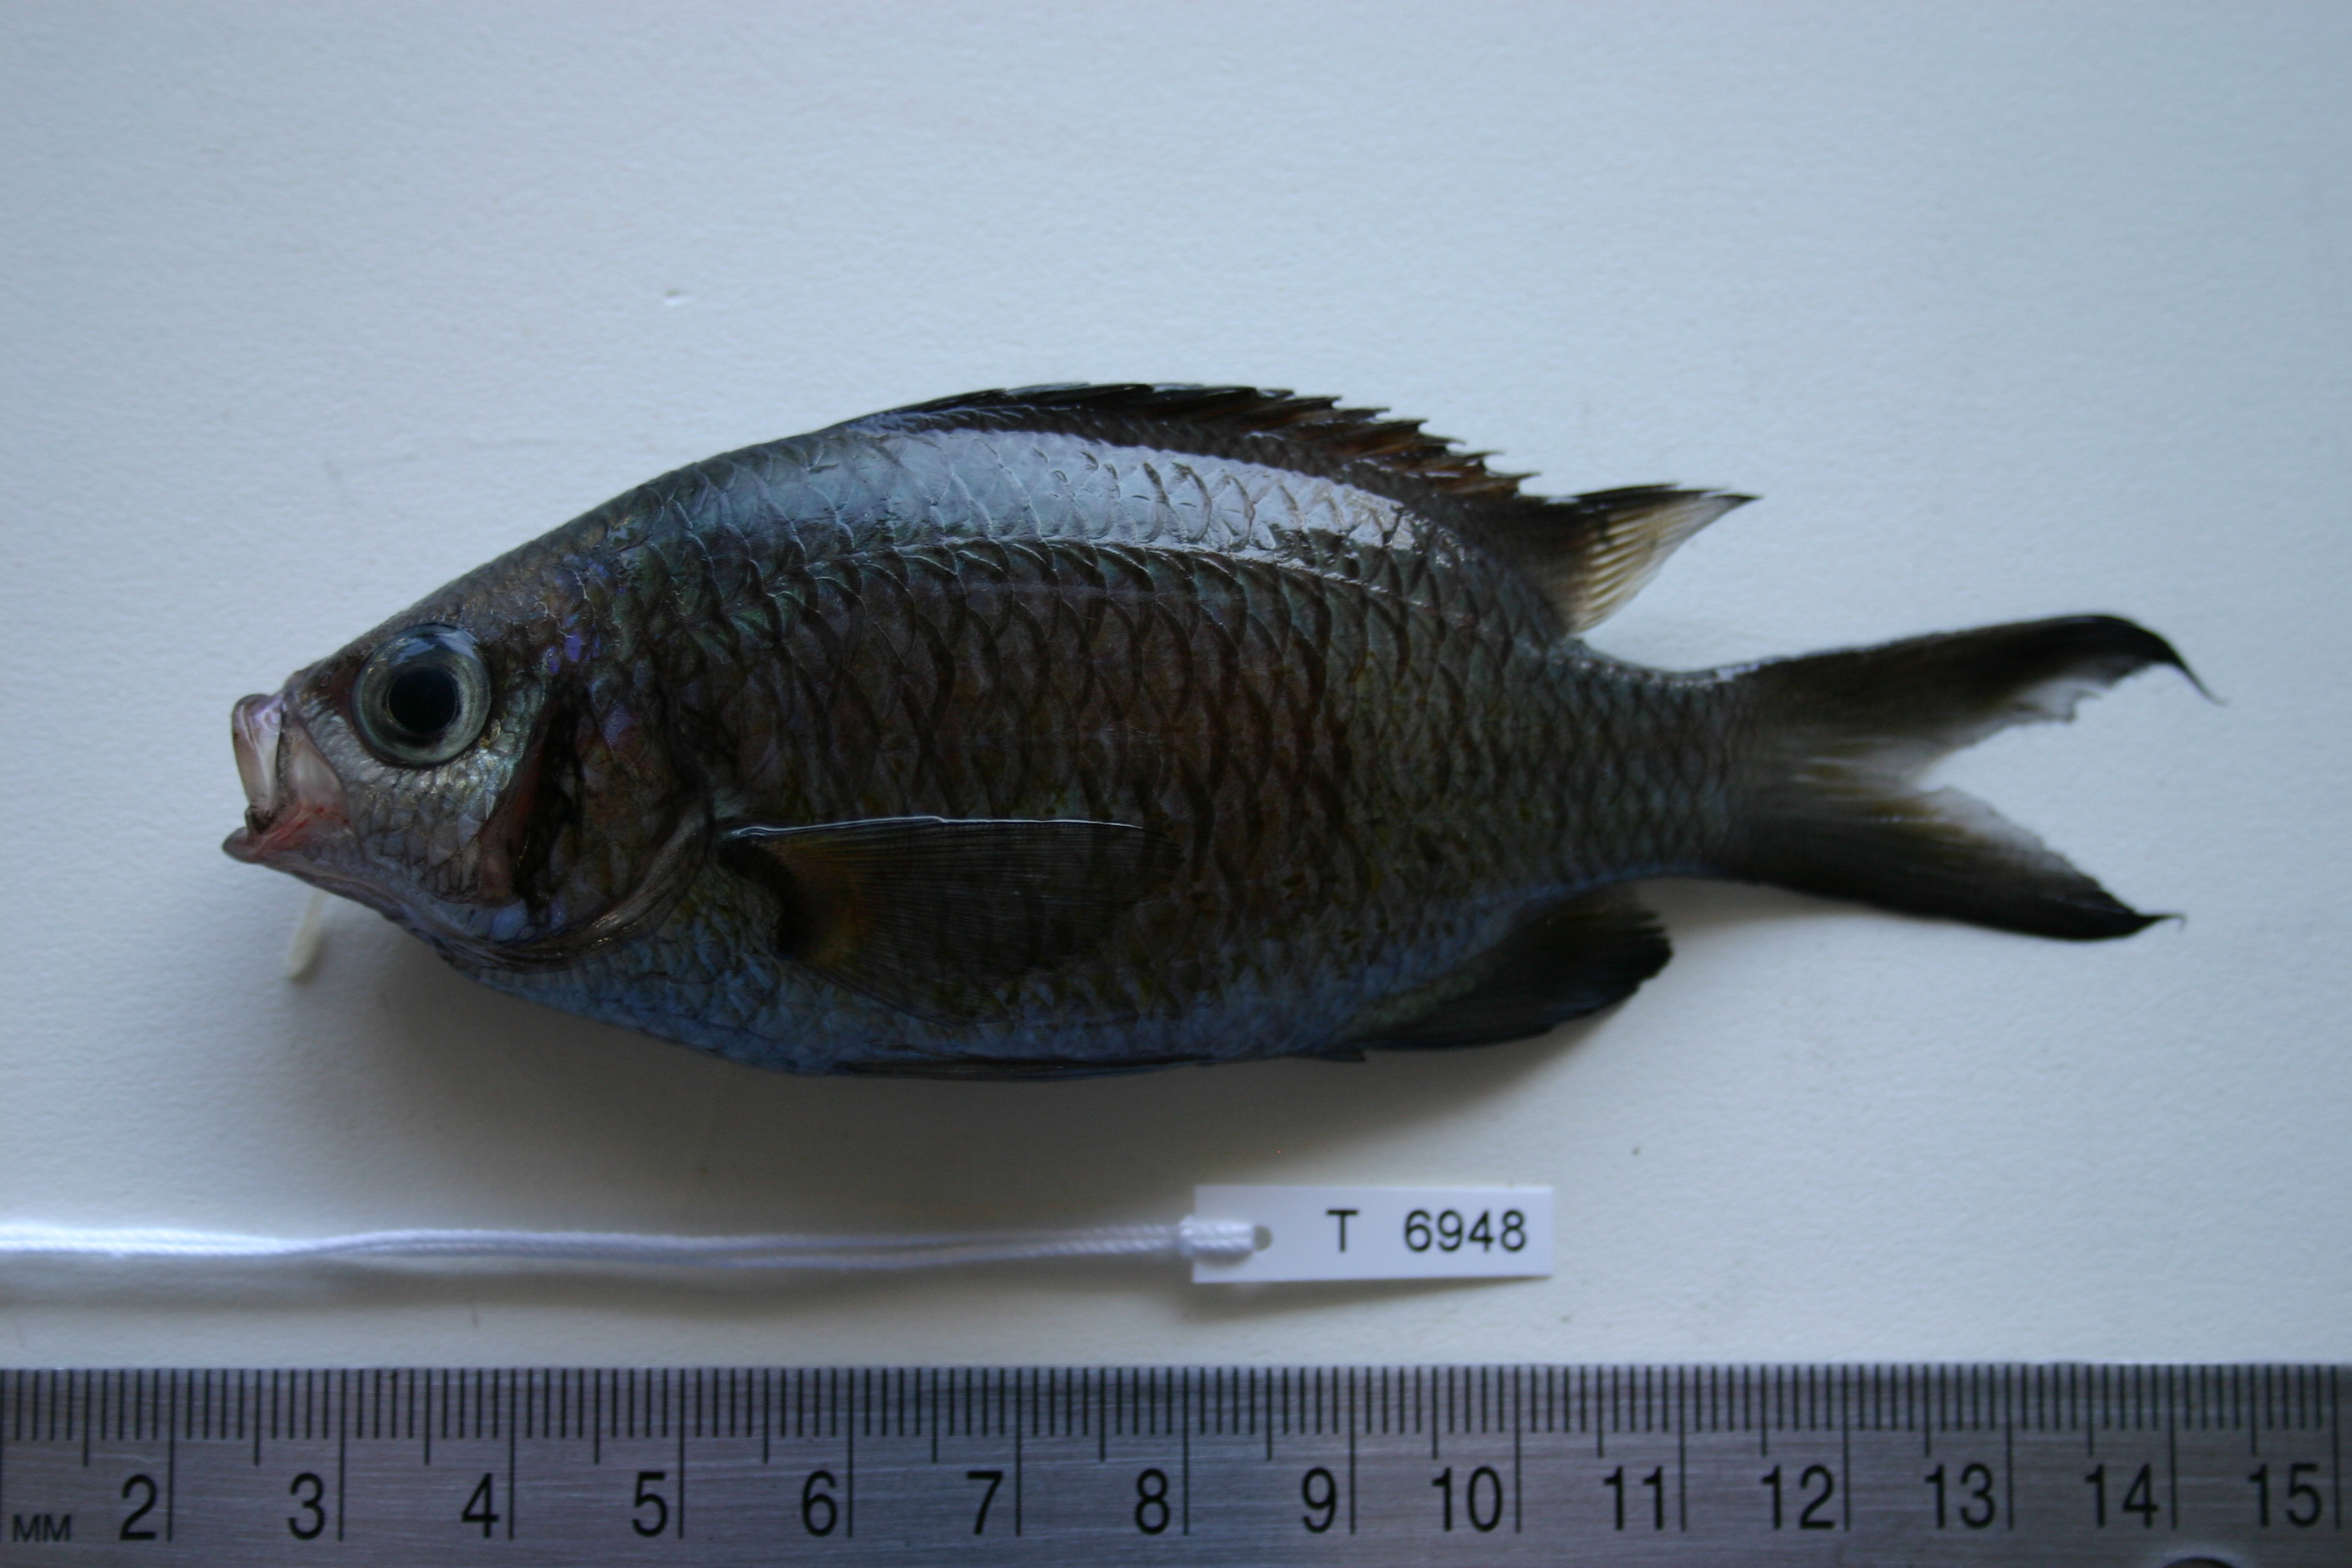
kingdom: Animalia
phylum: Chordata
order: Perciformes
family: Pomacentridae
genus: Chromis
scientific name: Chromis weberi
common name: Weber's chromis
